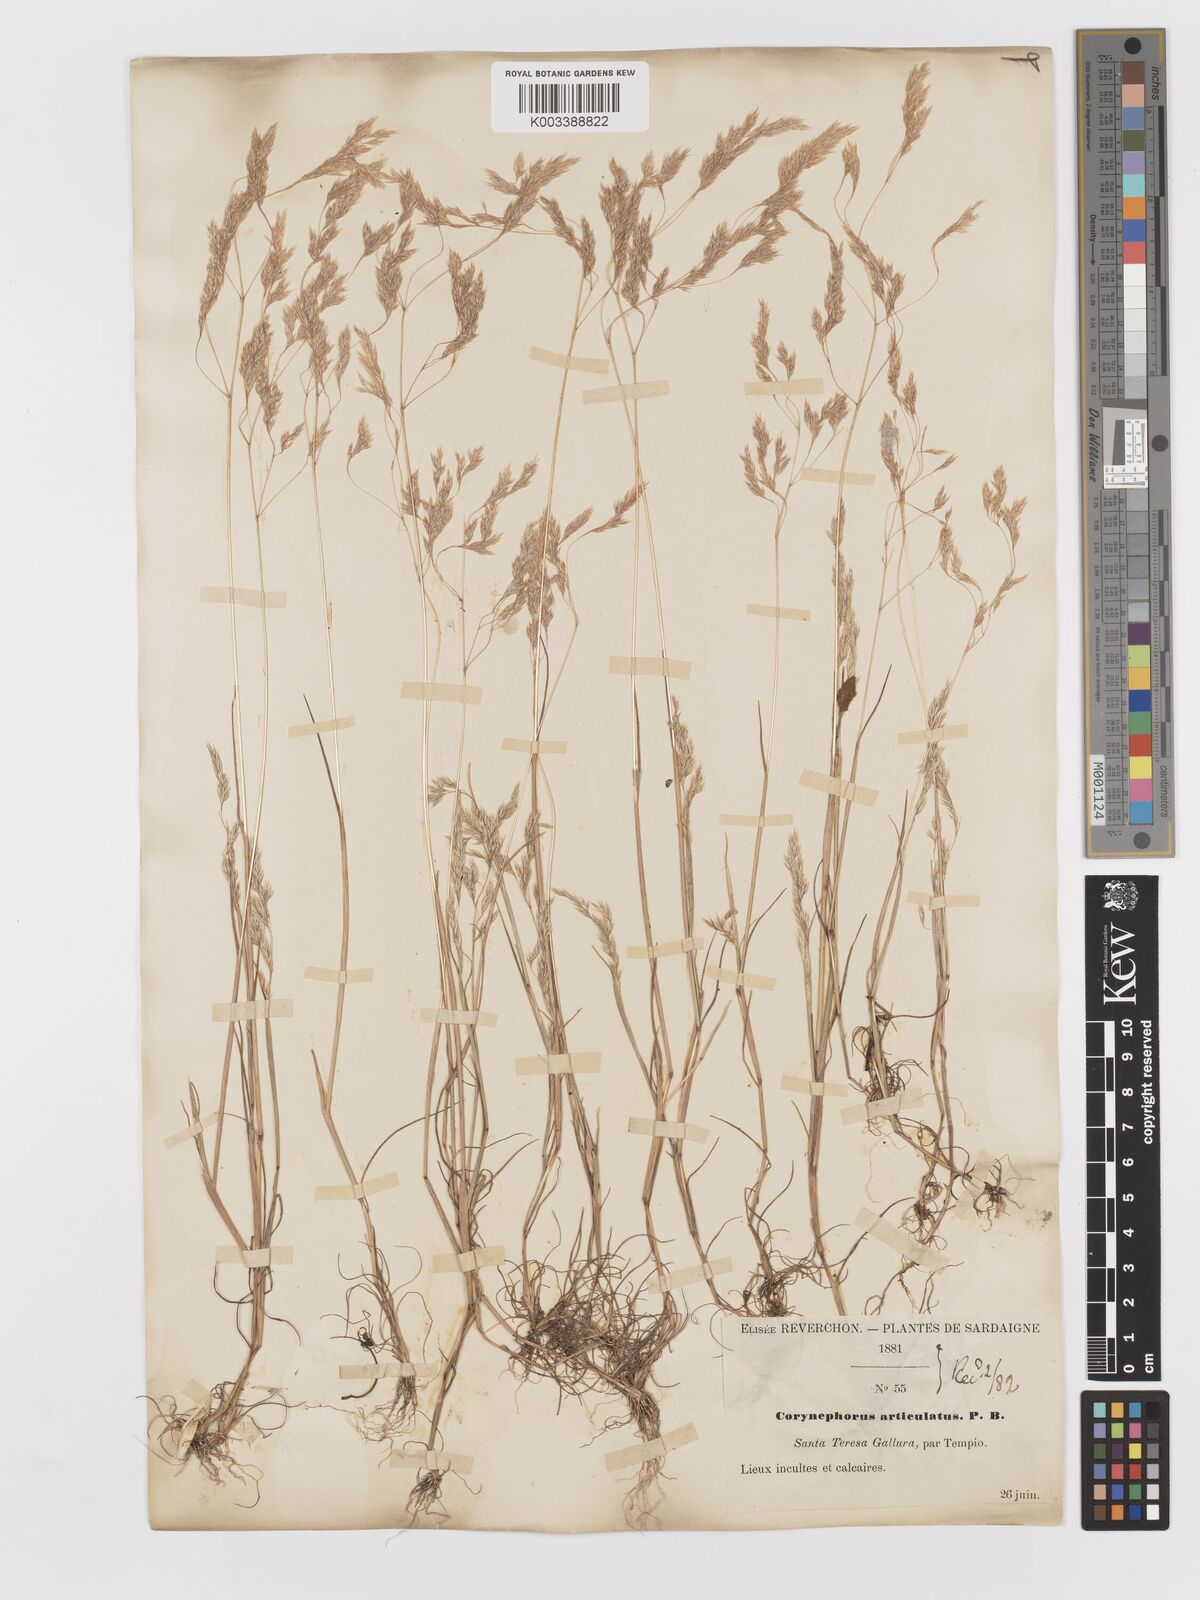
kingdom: Plantae
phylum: Tracheophyta
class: Liliopsida
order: Poales
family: Poaceae
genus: Corynephorus
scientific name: Corynephorus divaricatus
